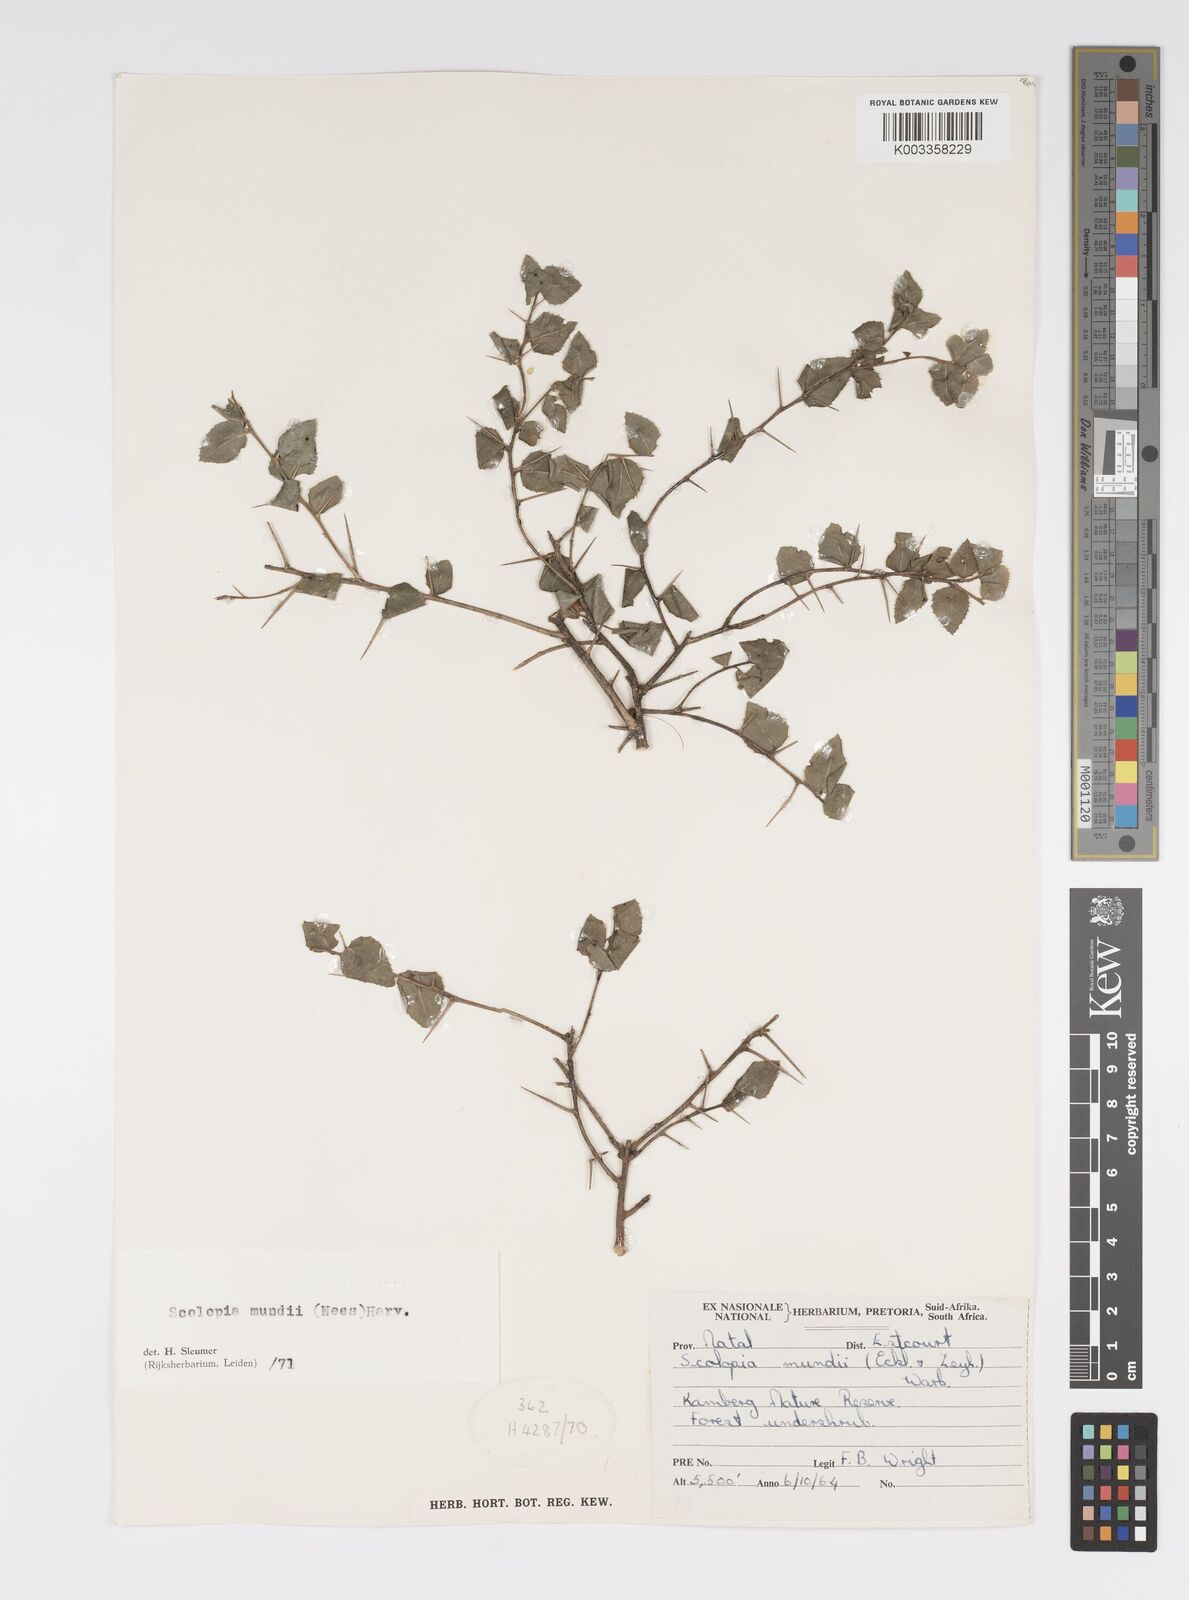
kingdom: Plantae
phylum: Tracheophyta
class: Magnoliopsida
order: Malpighiales
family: Salicaceae
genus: Scolopia
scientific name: Scolopia mundii
